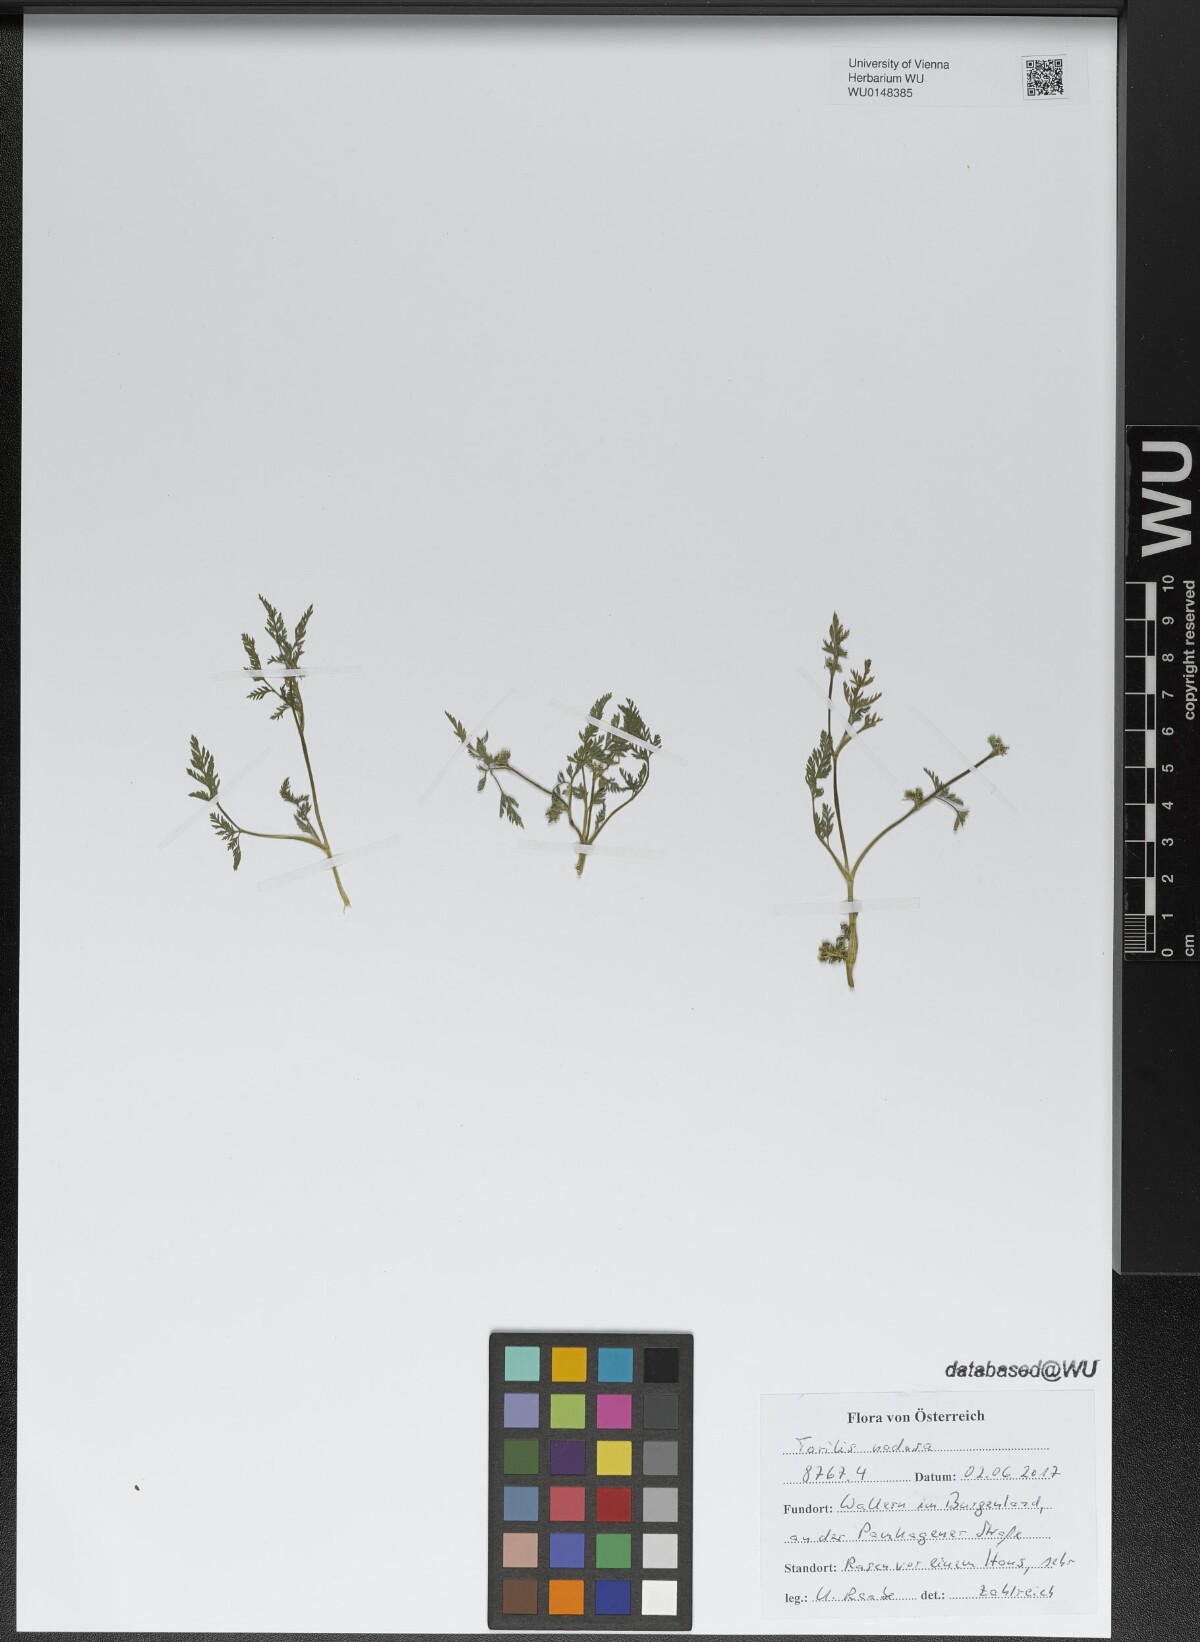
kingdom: Plantae
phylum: Tracheophyta
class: Magnoliopsida
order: Apiales
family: Apiaceae
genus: Torilis
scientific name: Torilis nodosa
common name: Knotted hedge-parsley
